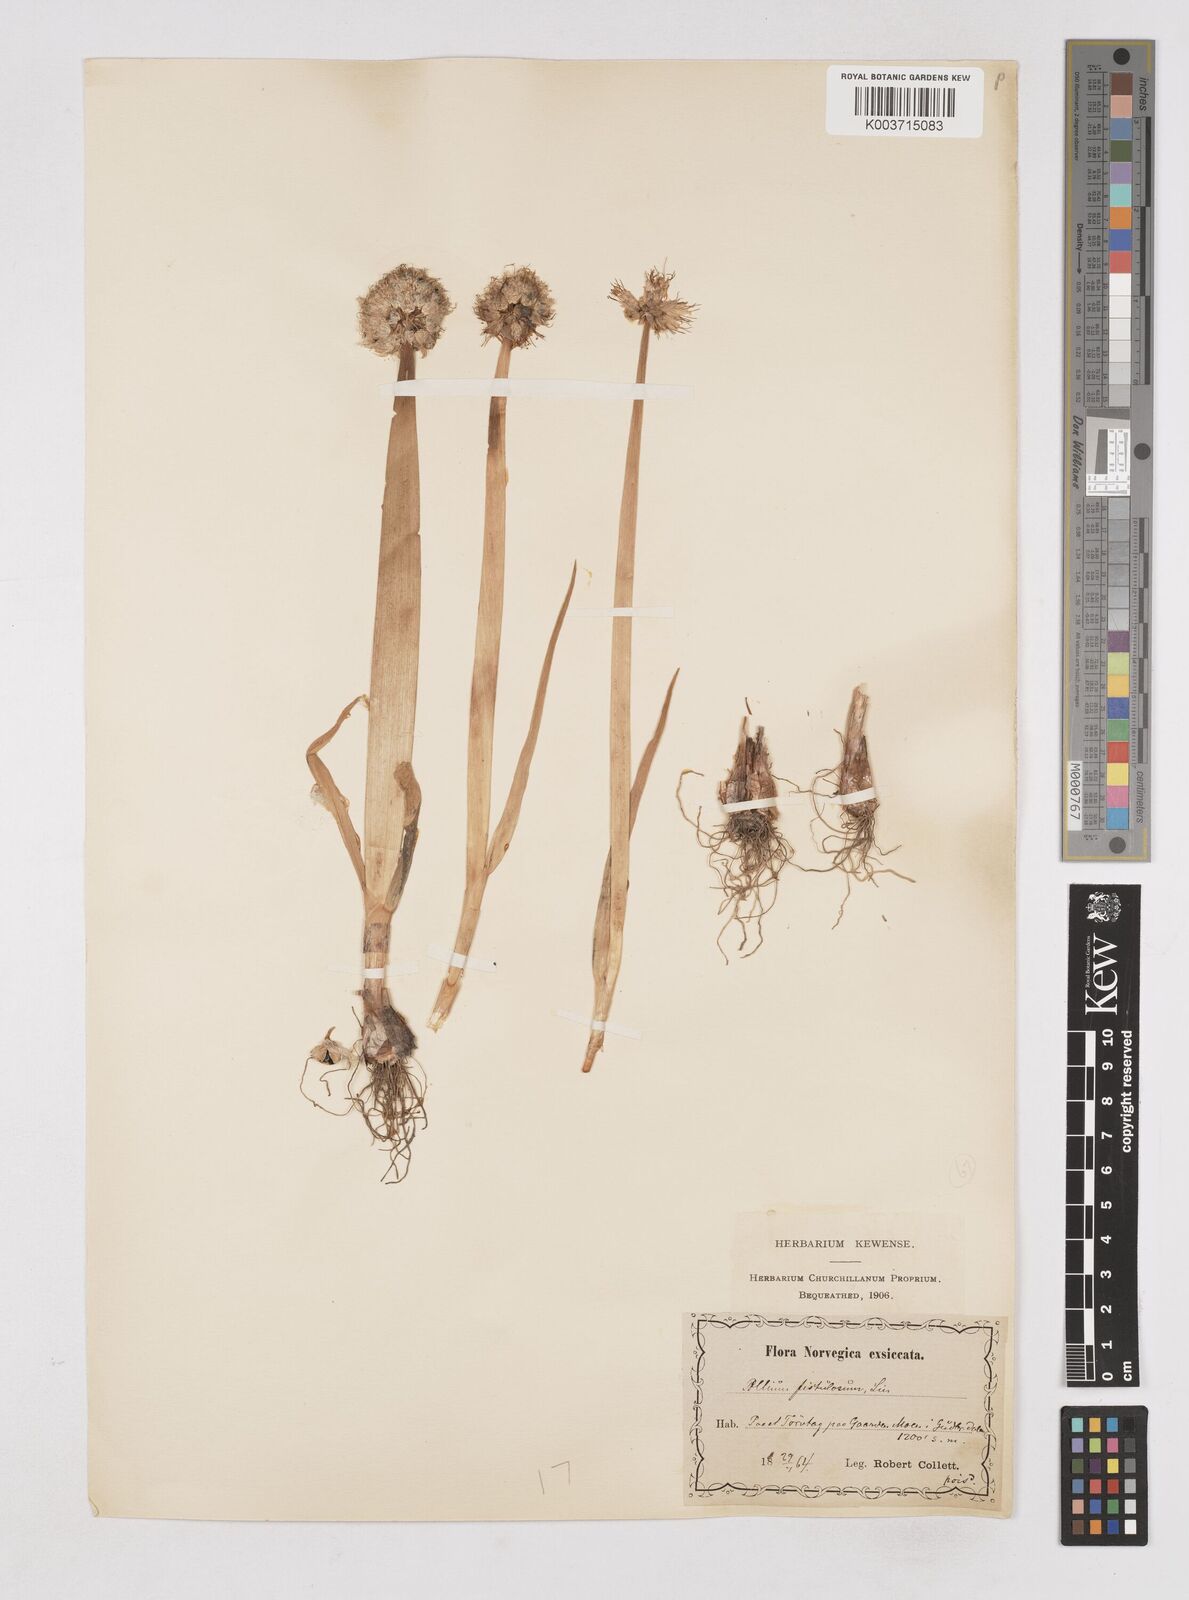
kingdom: Plantae
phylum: Tracheophyta
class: Liliopsida
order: Asparagales
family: Amaryllidaceae
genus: Allium
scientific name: Allium fistulosum
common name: Welsh onion
